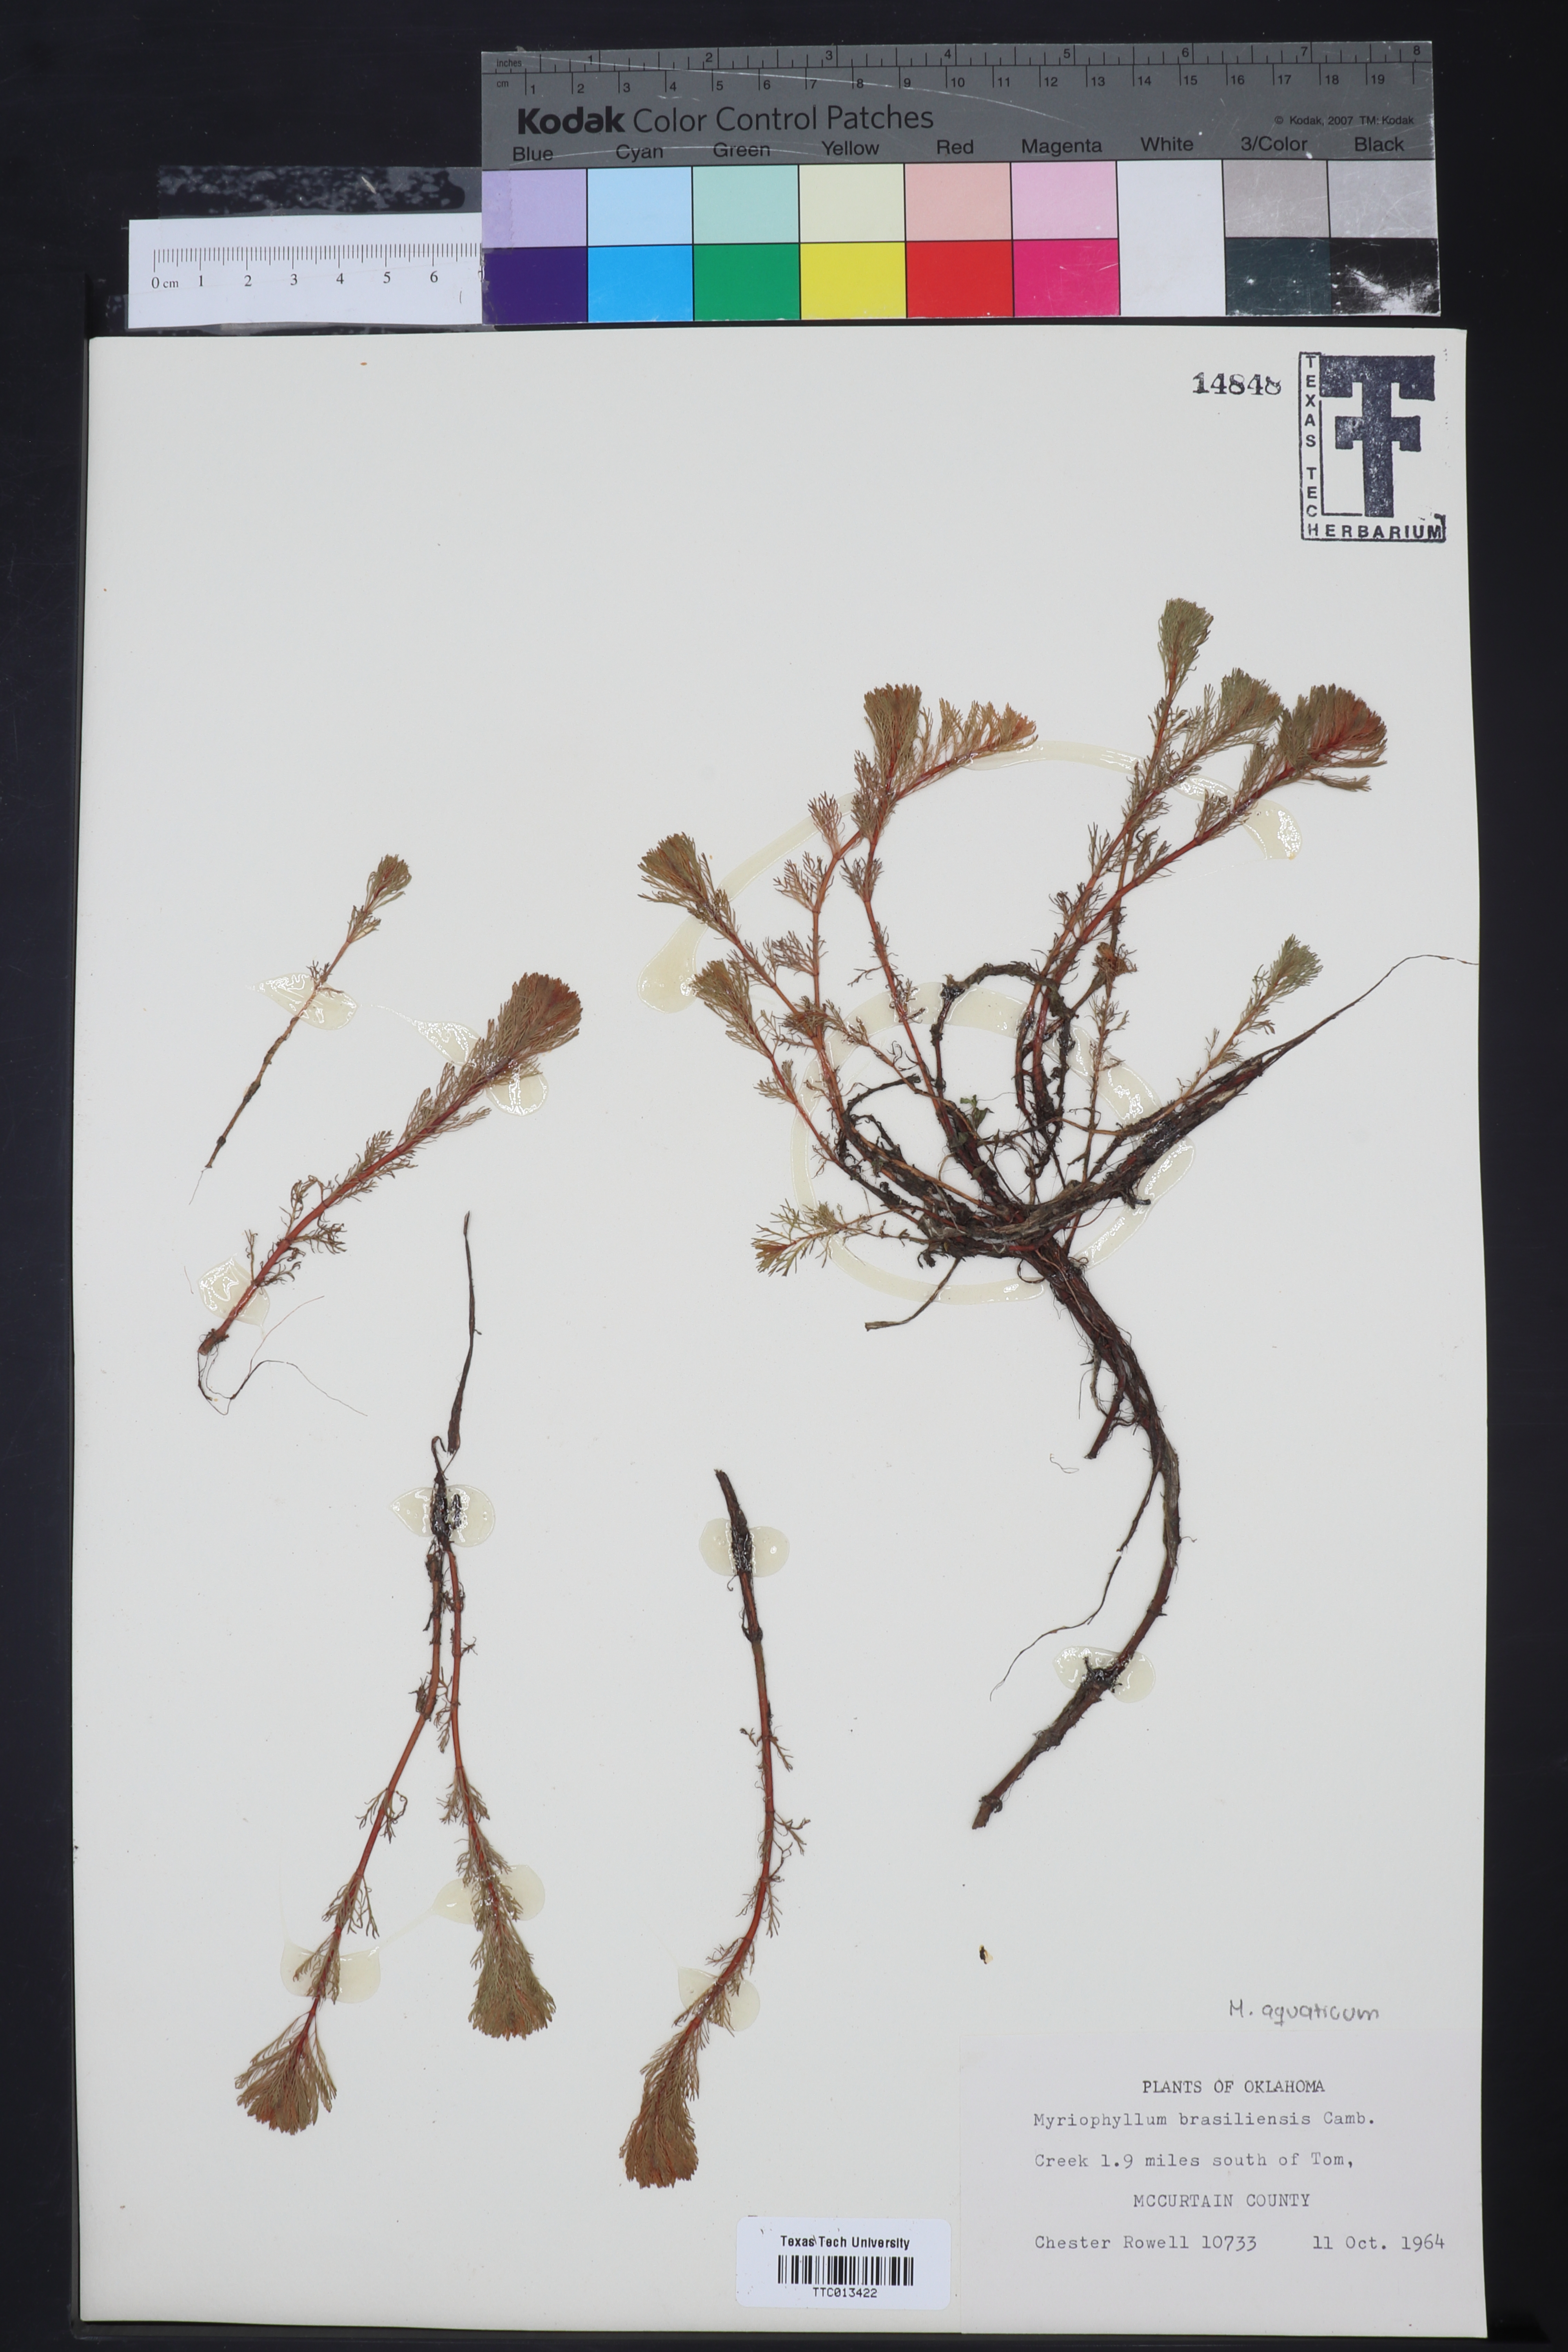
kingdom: Plantae
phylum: Tracheophyta
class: Magnoliopsida
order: Saxifragales
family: Haloragaceae
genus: Myriophyllum
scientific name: Myriophyllum aquaticum
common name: Parrot's feather
